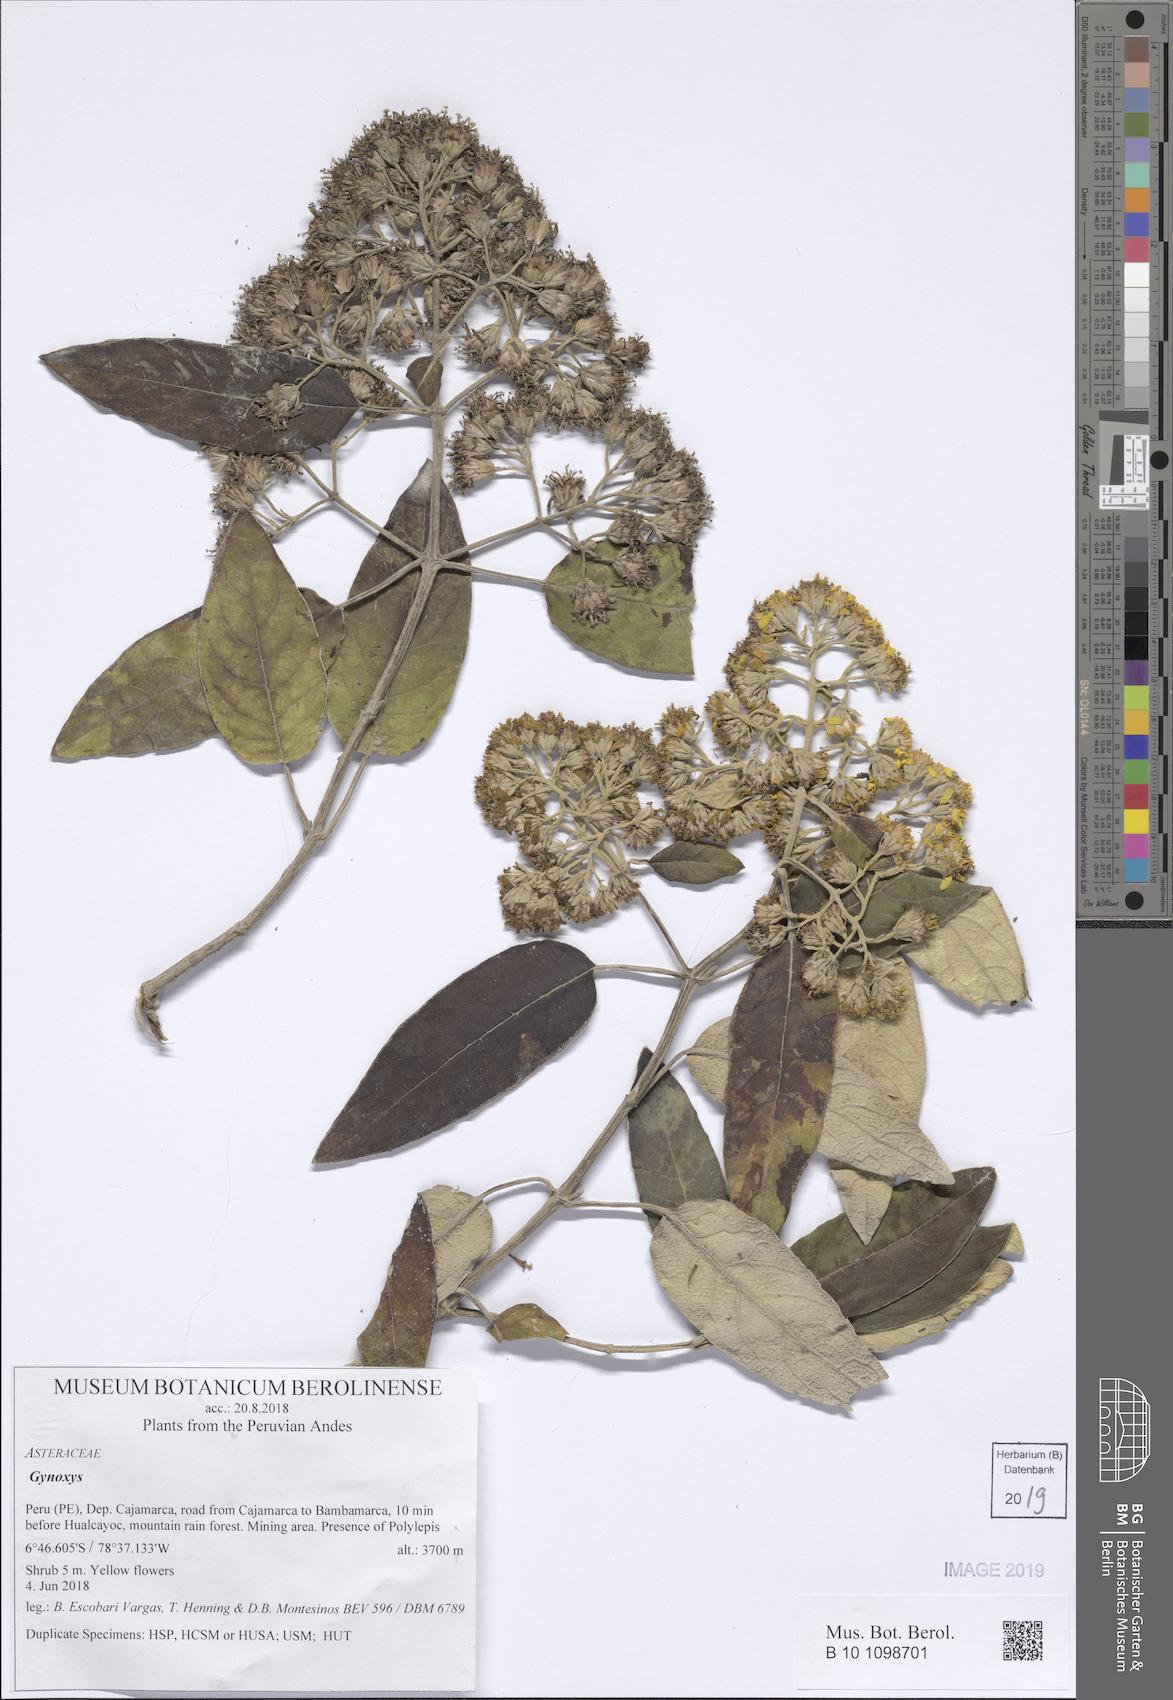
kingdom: Plantae
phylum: Tracheophyta
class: Magnoliopsida
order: Asterales
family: Asteraceae
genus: Gynoxys
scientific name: Gynoxys
